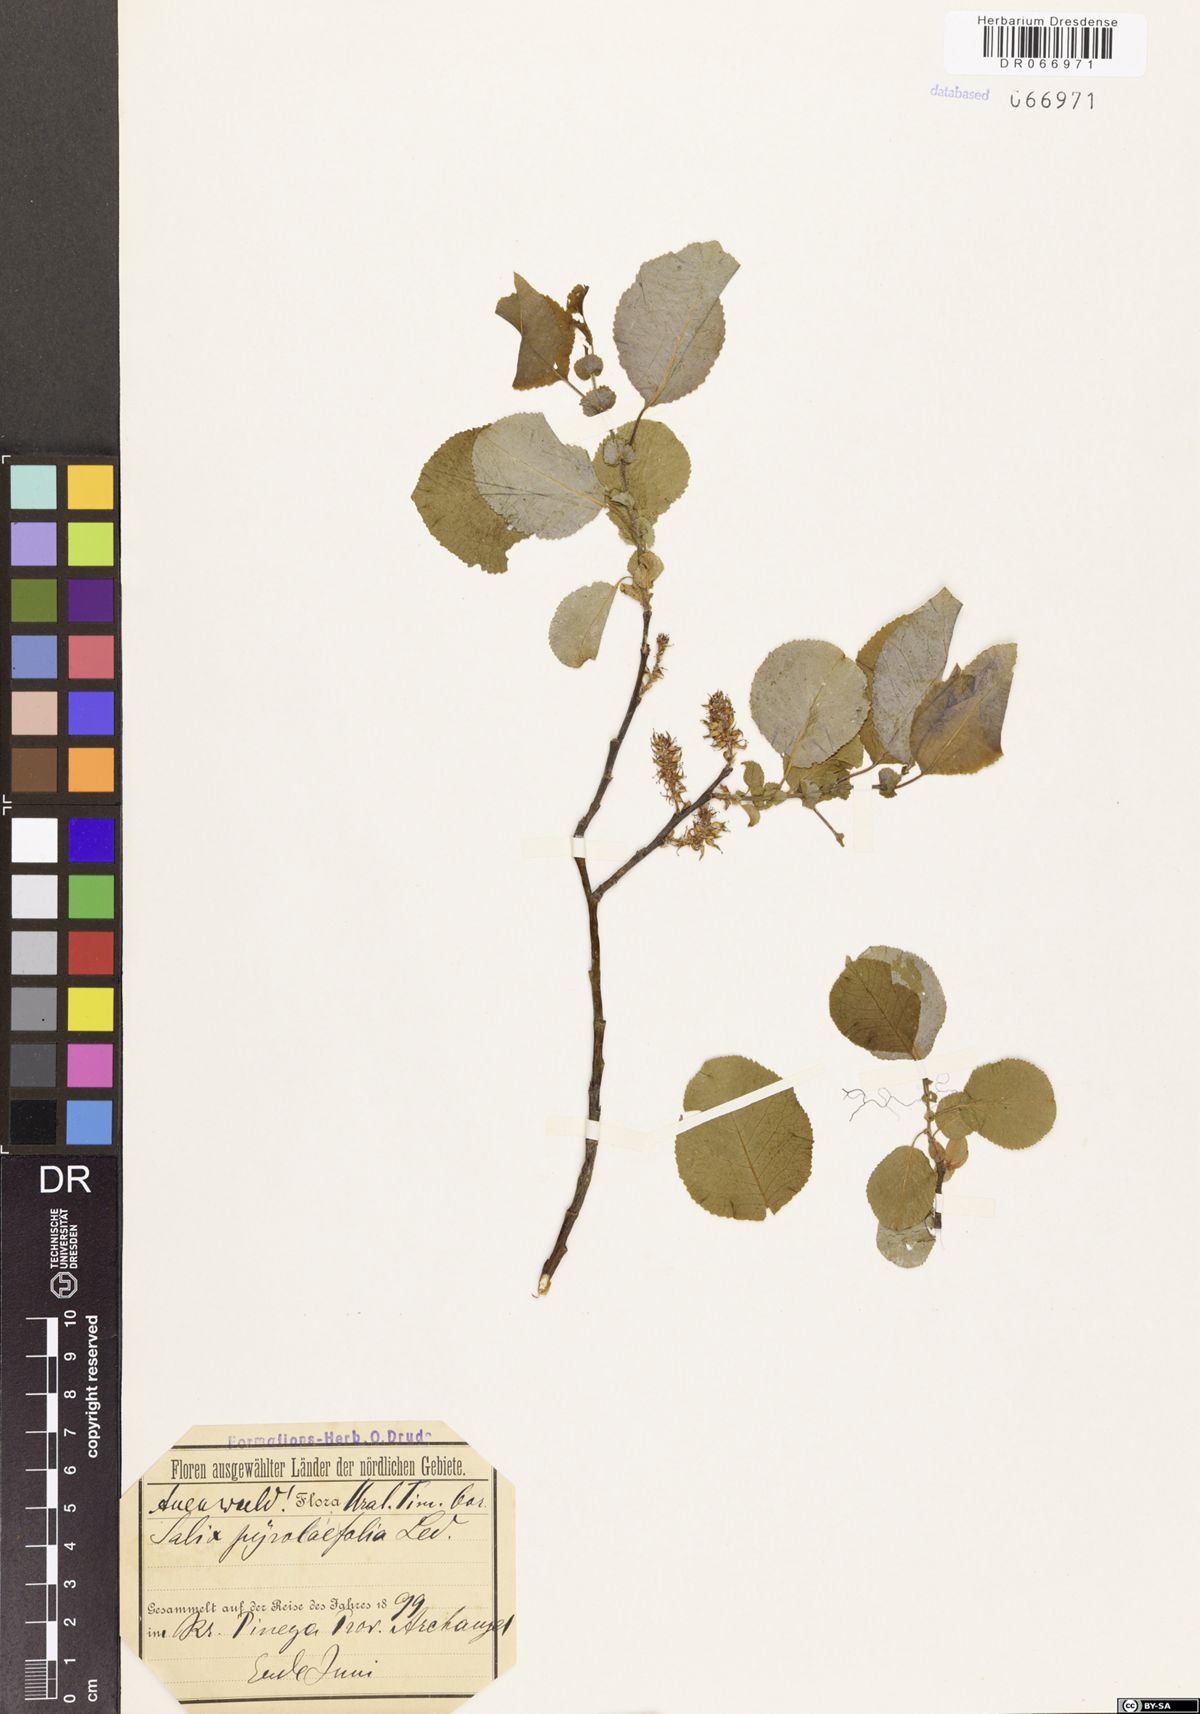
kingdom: Plantae
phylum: Tracheophyta
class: Magnoliopsida
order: Malpighiales
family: Salicaceae
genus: Salix
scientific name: Salix pyrolifolia
